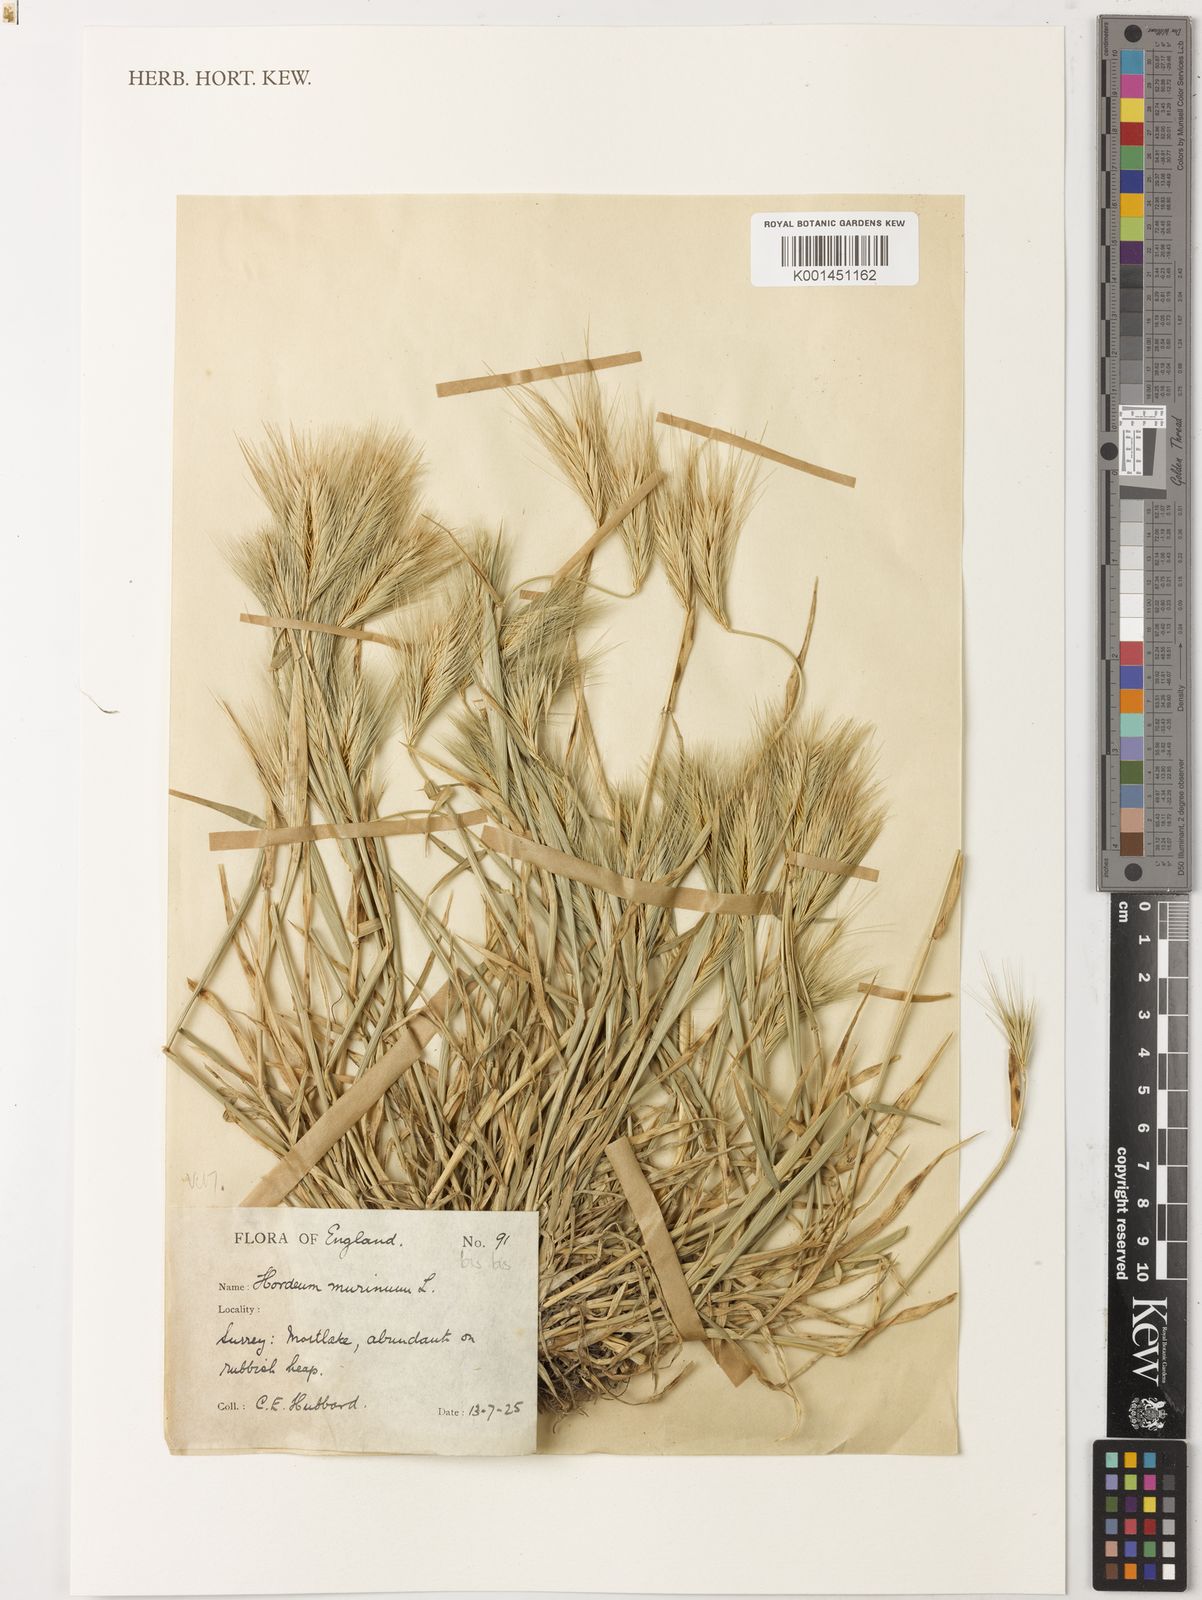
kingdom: Plantae
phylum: Tracheophyta
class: Liliopsida
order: Poales
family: Poaceae
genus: Hordeum
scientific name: Hordeum murinum
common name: Wall barley
